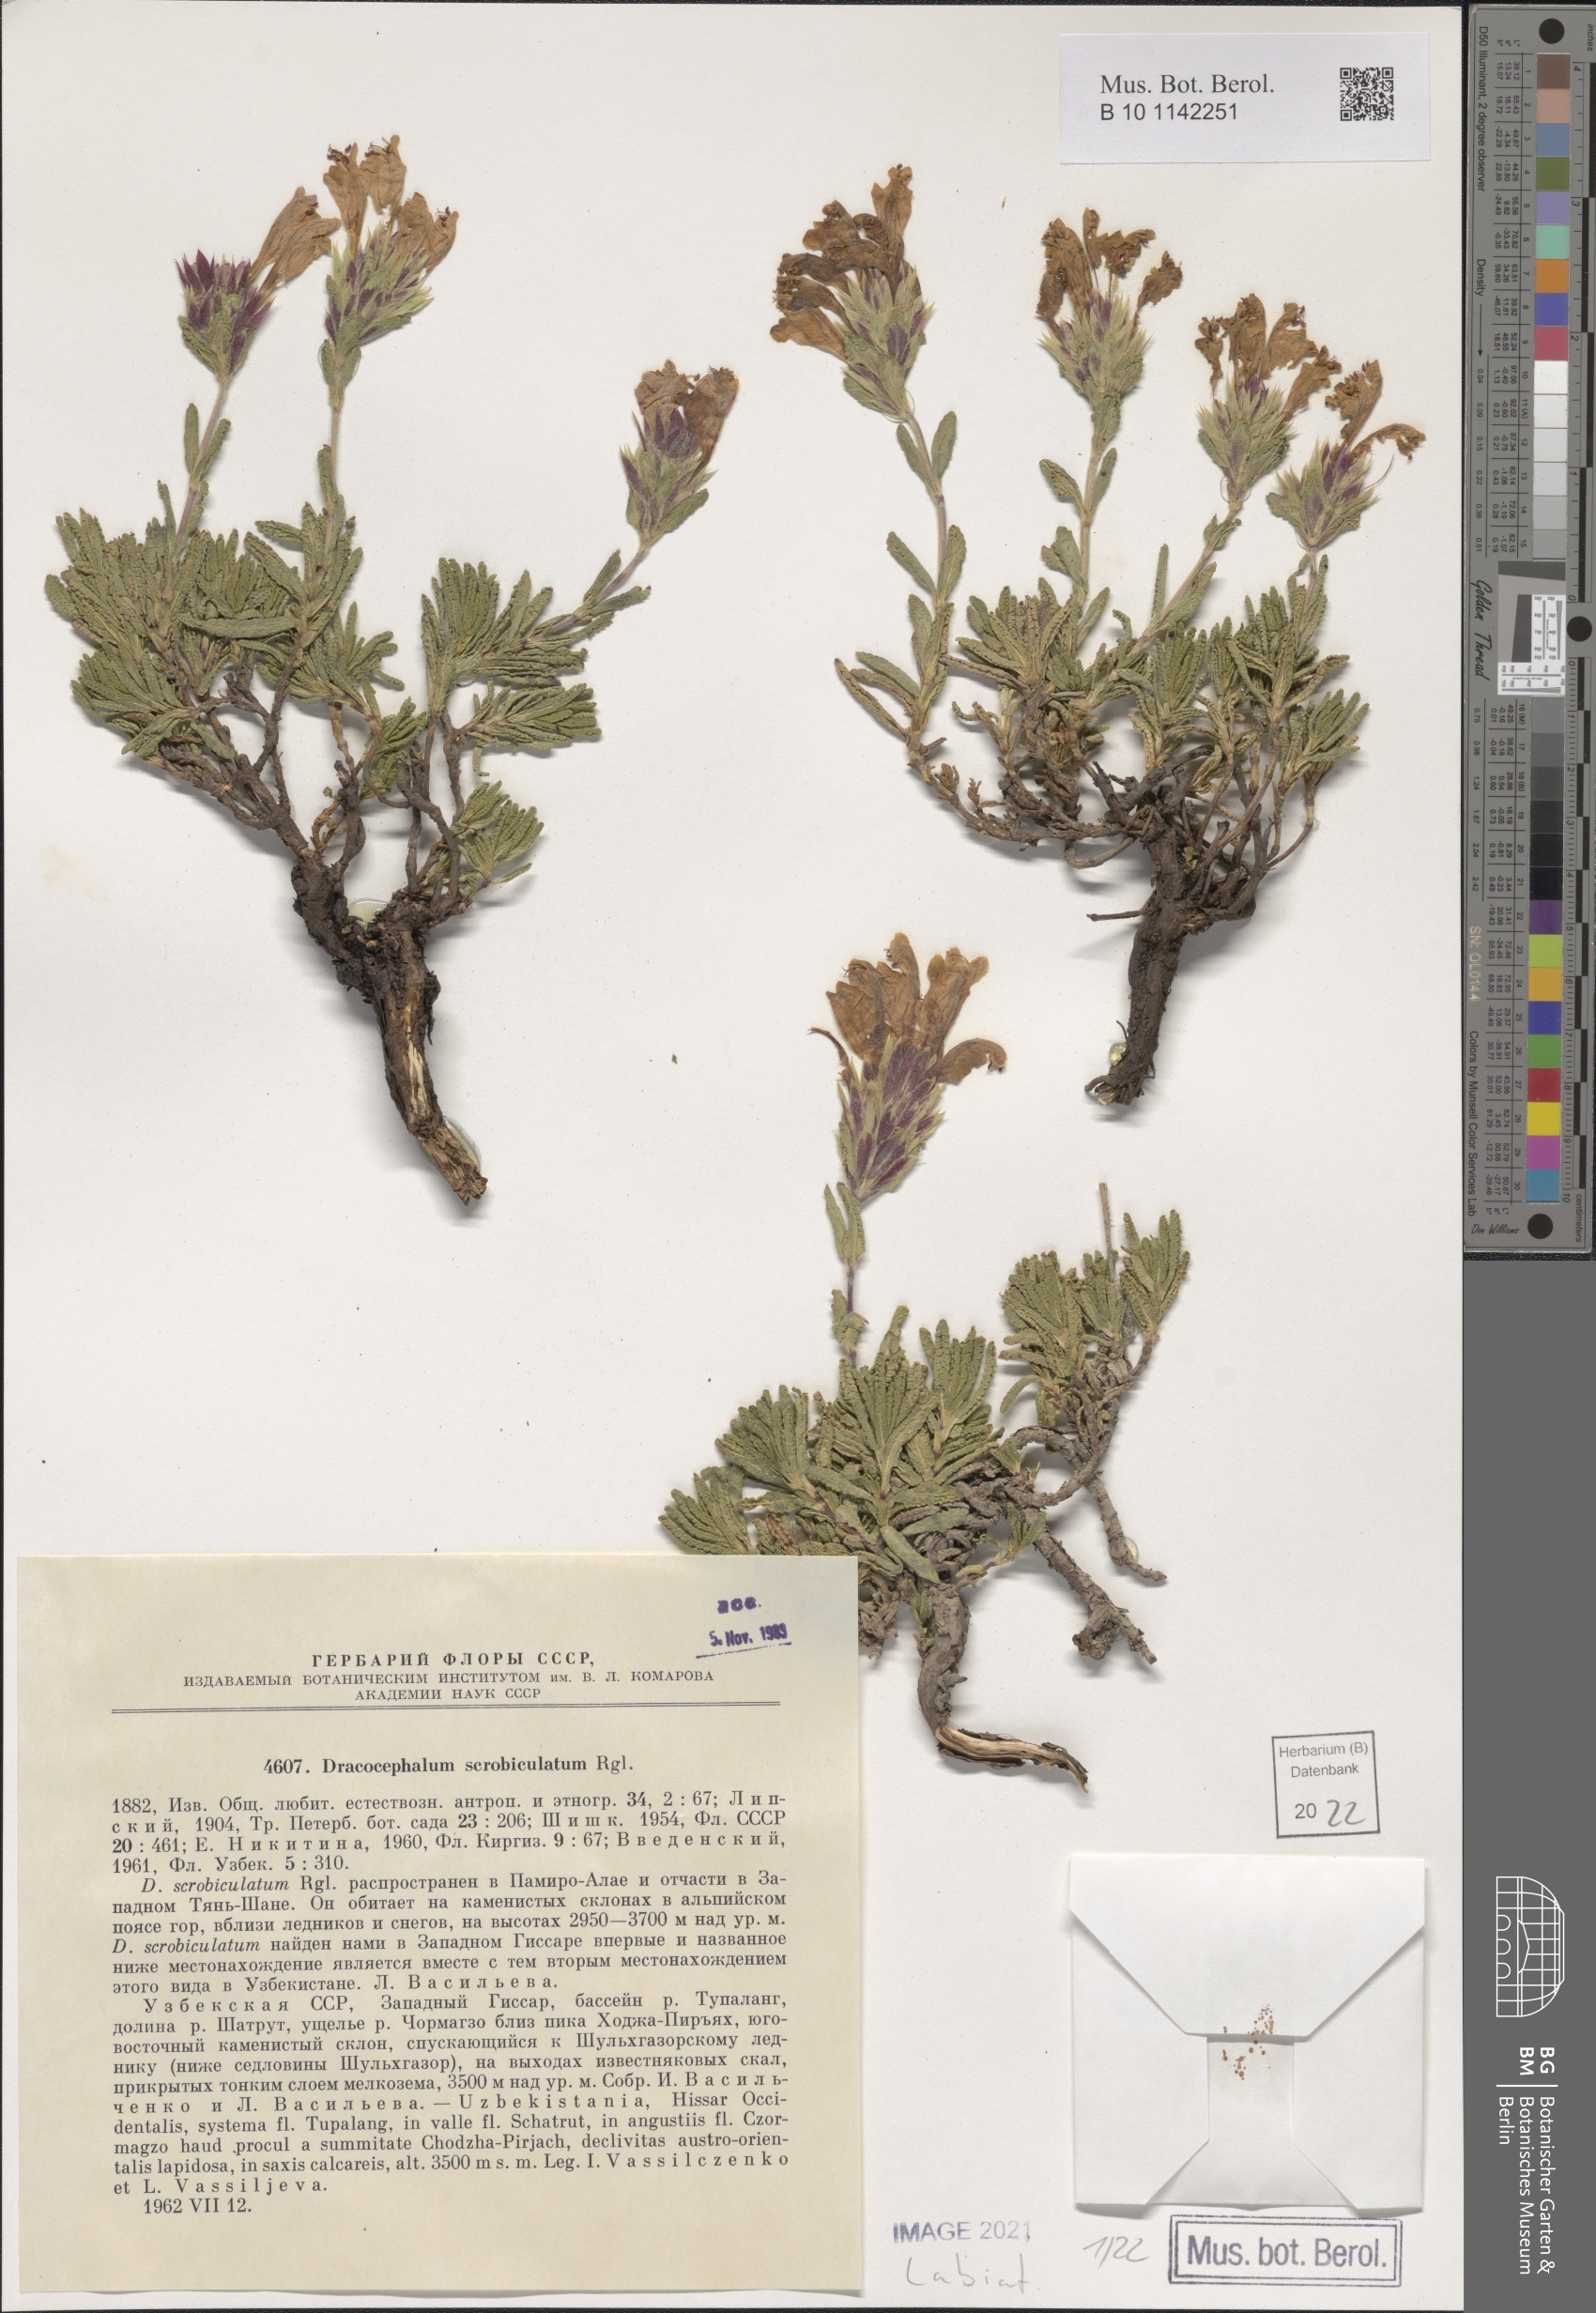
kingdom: Plantae
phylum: Tracheophyta
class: Magnoliopsida
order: Lamiales
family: Lamiaceae
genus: Dracocephalum
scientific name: Dracocephalum scrobiculatum
